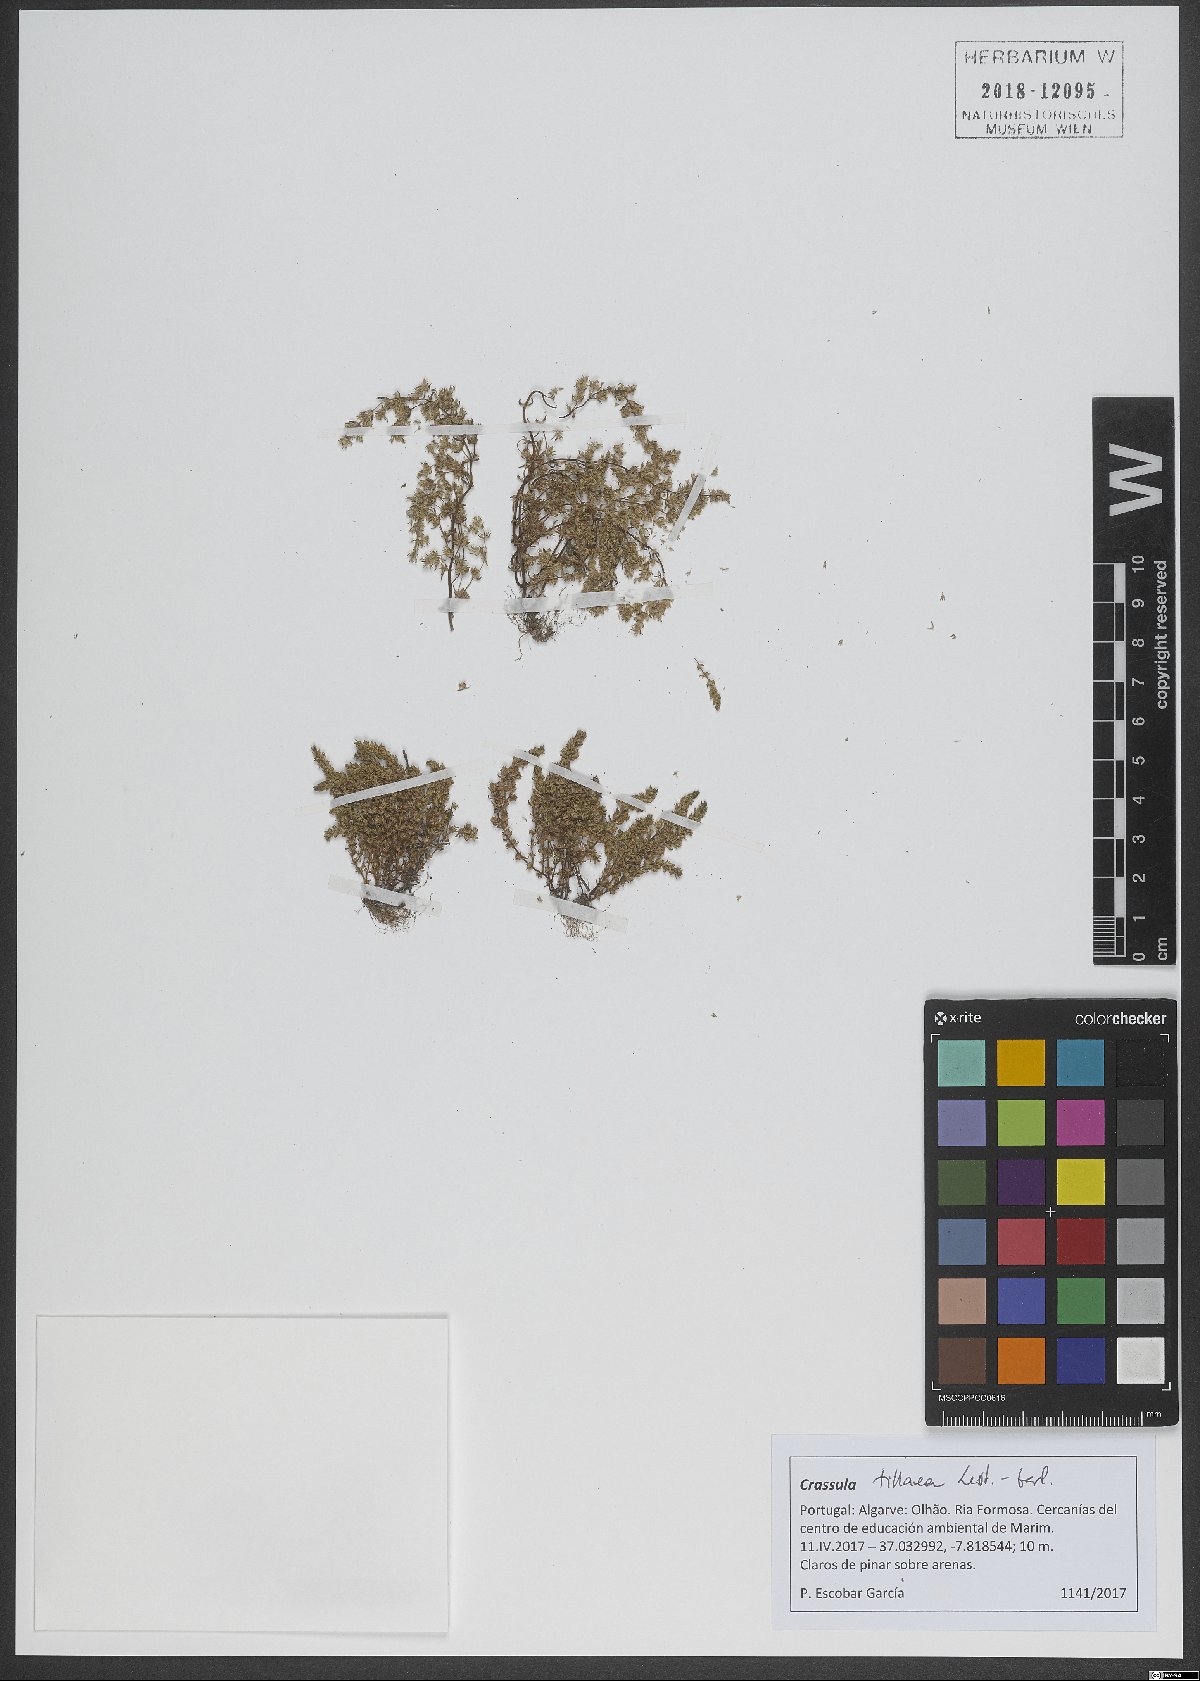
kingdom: Plantae
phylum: Tracheophyta
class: Magnoliopsida
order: Saxifragales
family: Crassulaceae
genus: Crassula
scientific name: Crassula tillaea
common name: Mossy stonecrop
